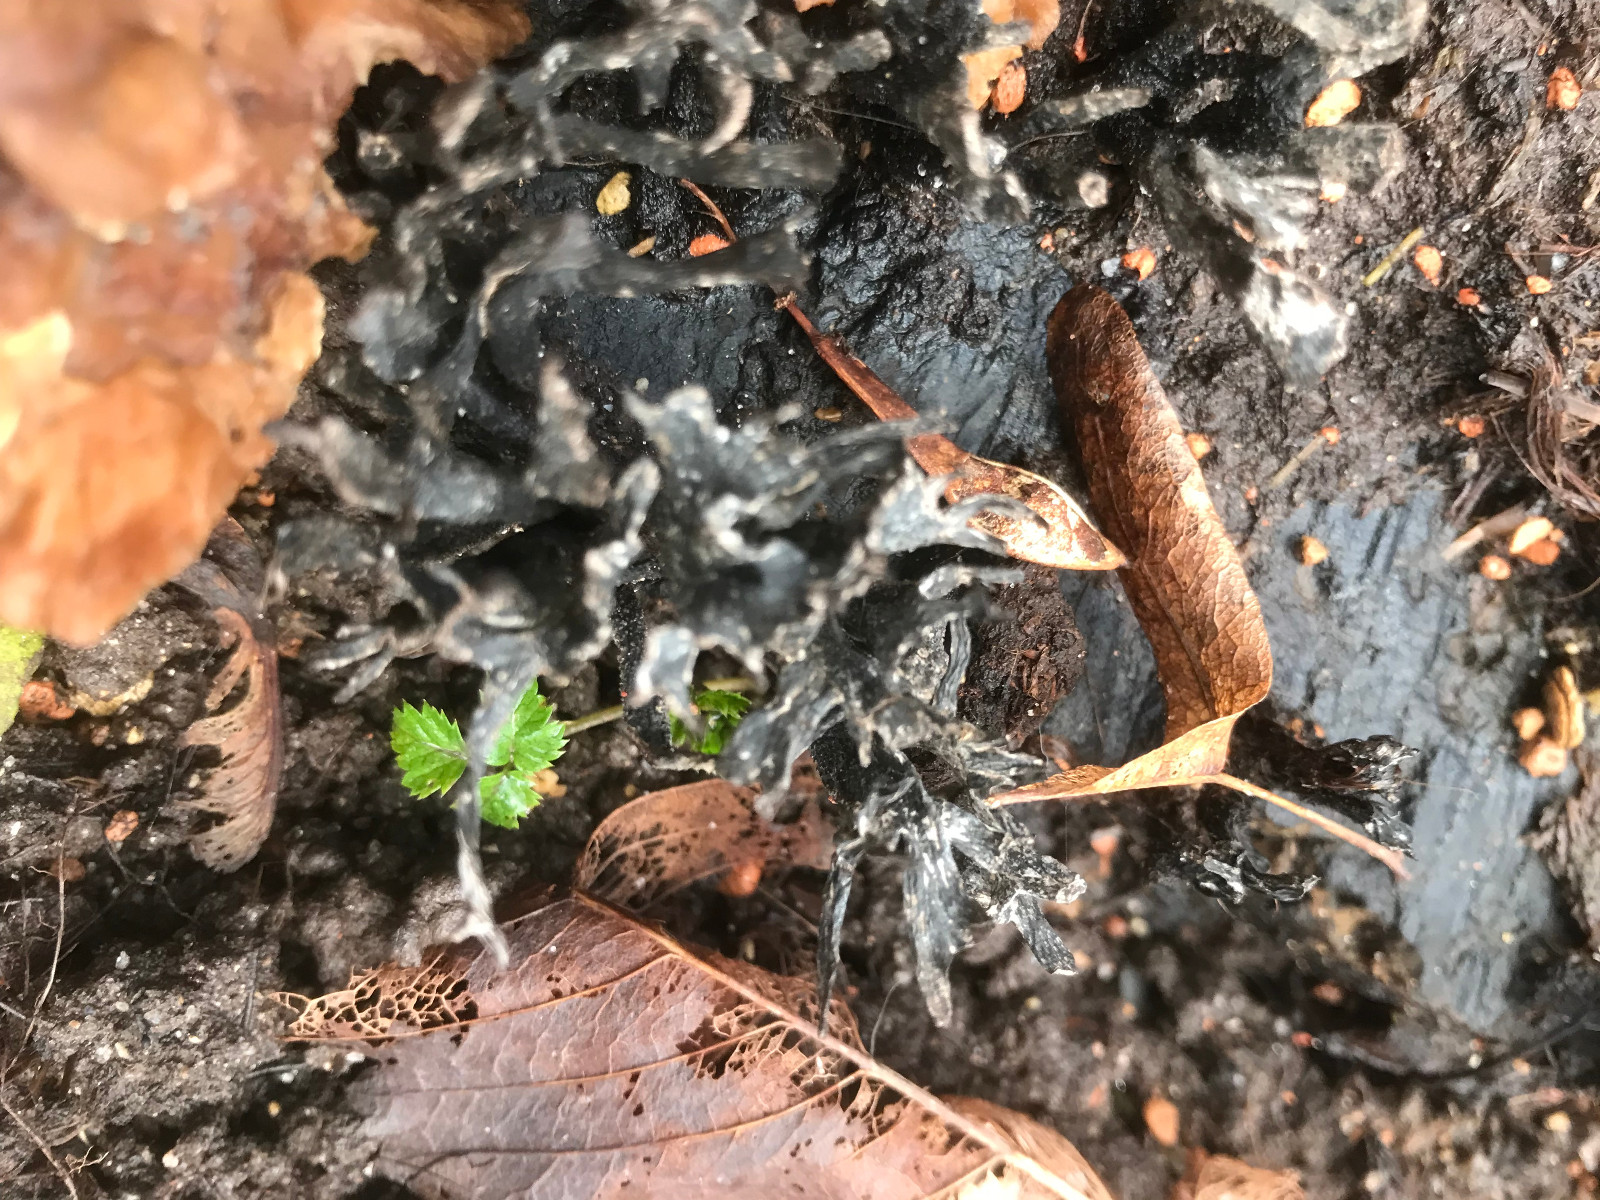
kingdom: Fungi
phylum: Ascomycota
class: Sordariomycetes
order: Xylariales
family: Xylariaceae
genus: Xylaria
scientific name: Xylaria hypoxylon
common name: grenet stødsvamp
